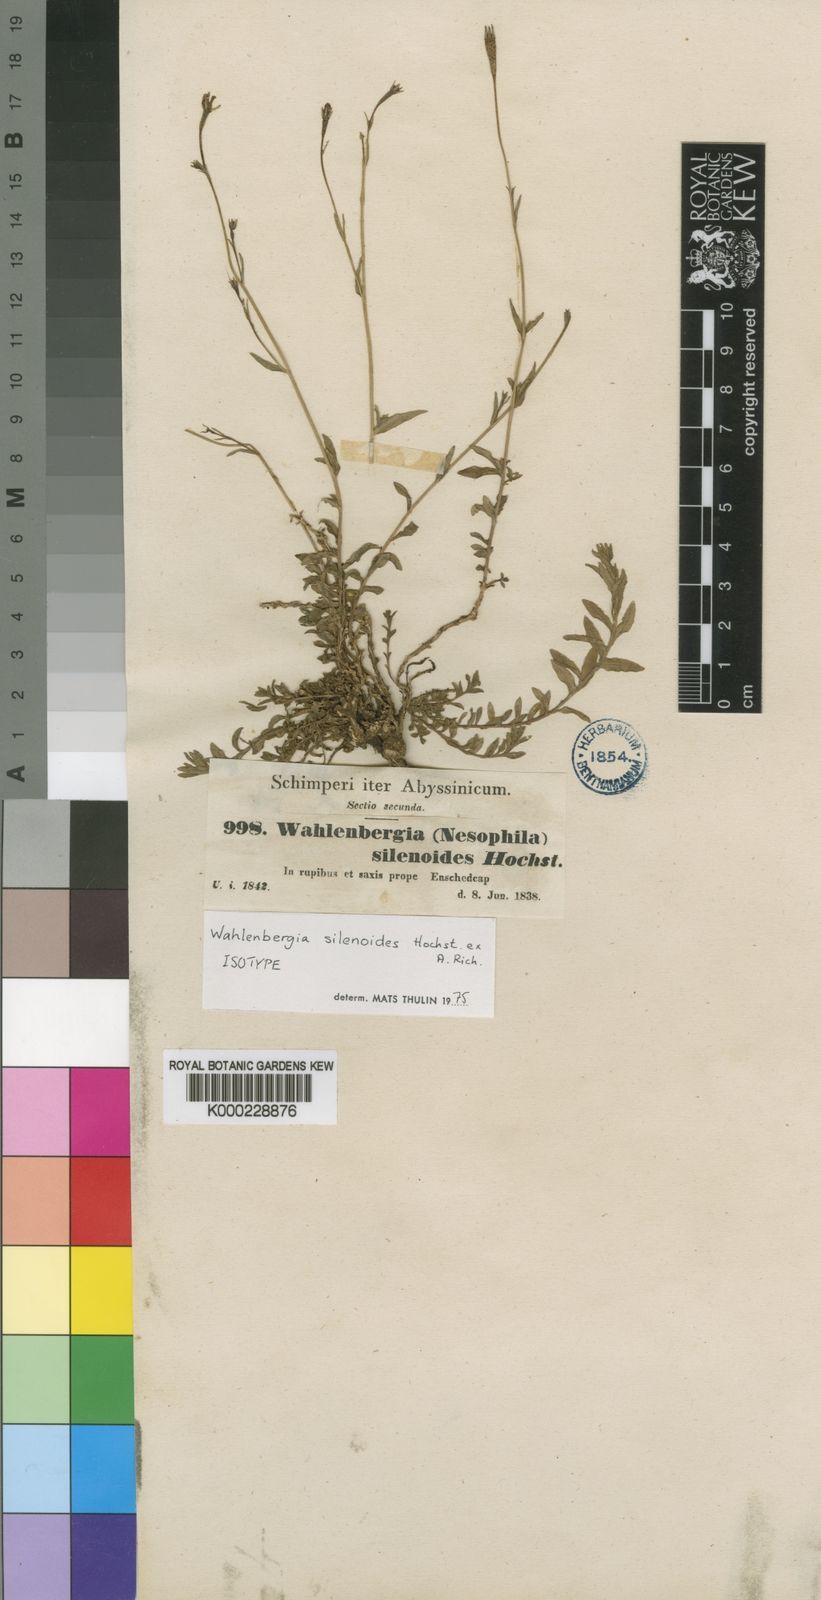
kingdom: Plantae
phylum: Tracheophyta
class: Magnoliopsida
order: Asterales
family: Campanulaceae
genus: Wahlenbergia
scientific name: Wahlenbergia silenoides
